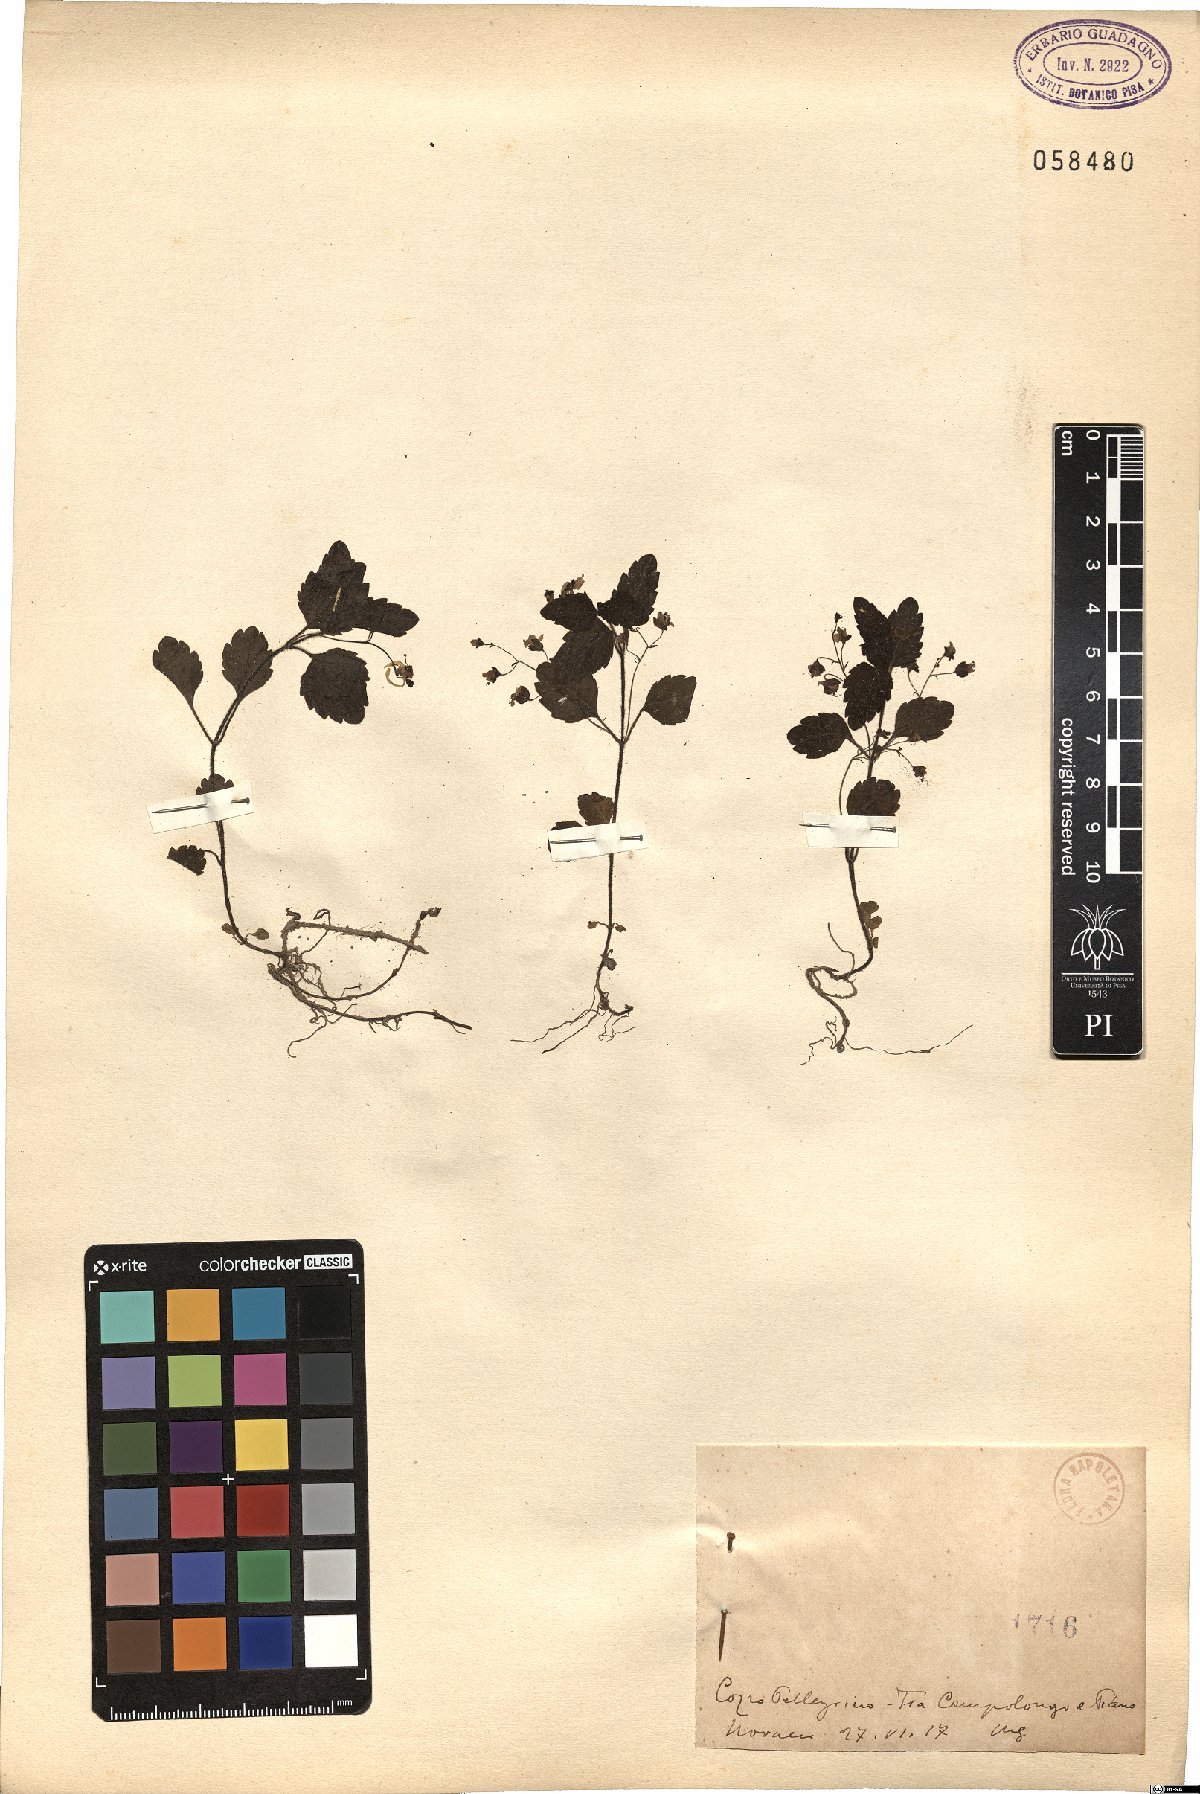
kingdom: Plantae
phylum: Tracheophyta
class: Magnoliopsida
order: Lamiales
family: Plantaginaceae
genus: Veronica
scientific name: Veronica
